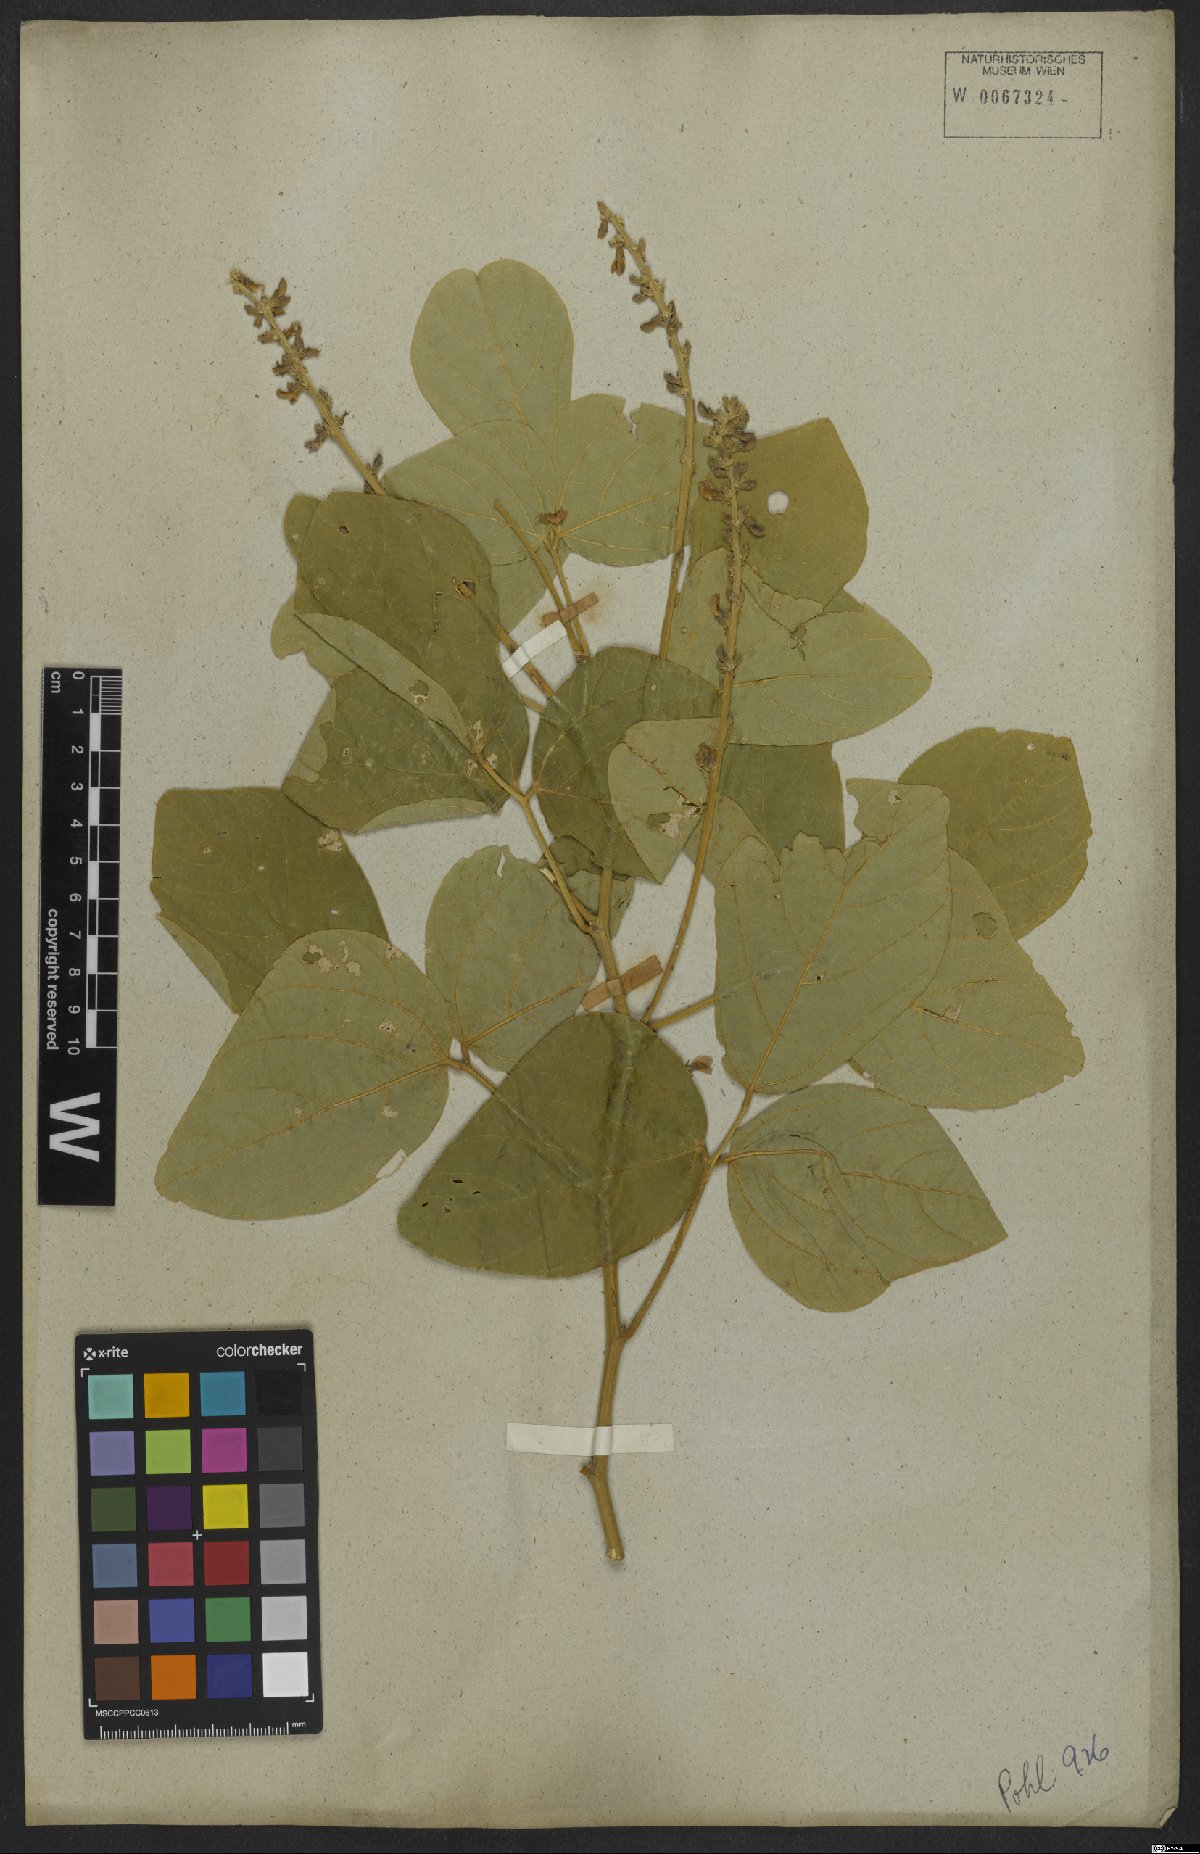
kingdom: Plantae
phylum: Tracheophyta
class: Magnoliopsida
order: Fabales
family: Fabaceae
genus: Calopogonium
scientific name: Calopogonium sericeum
